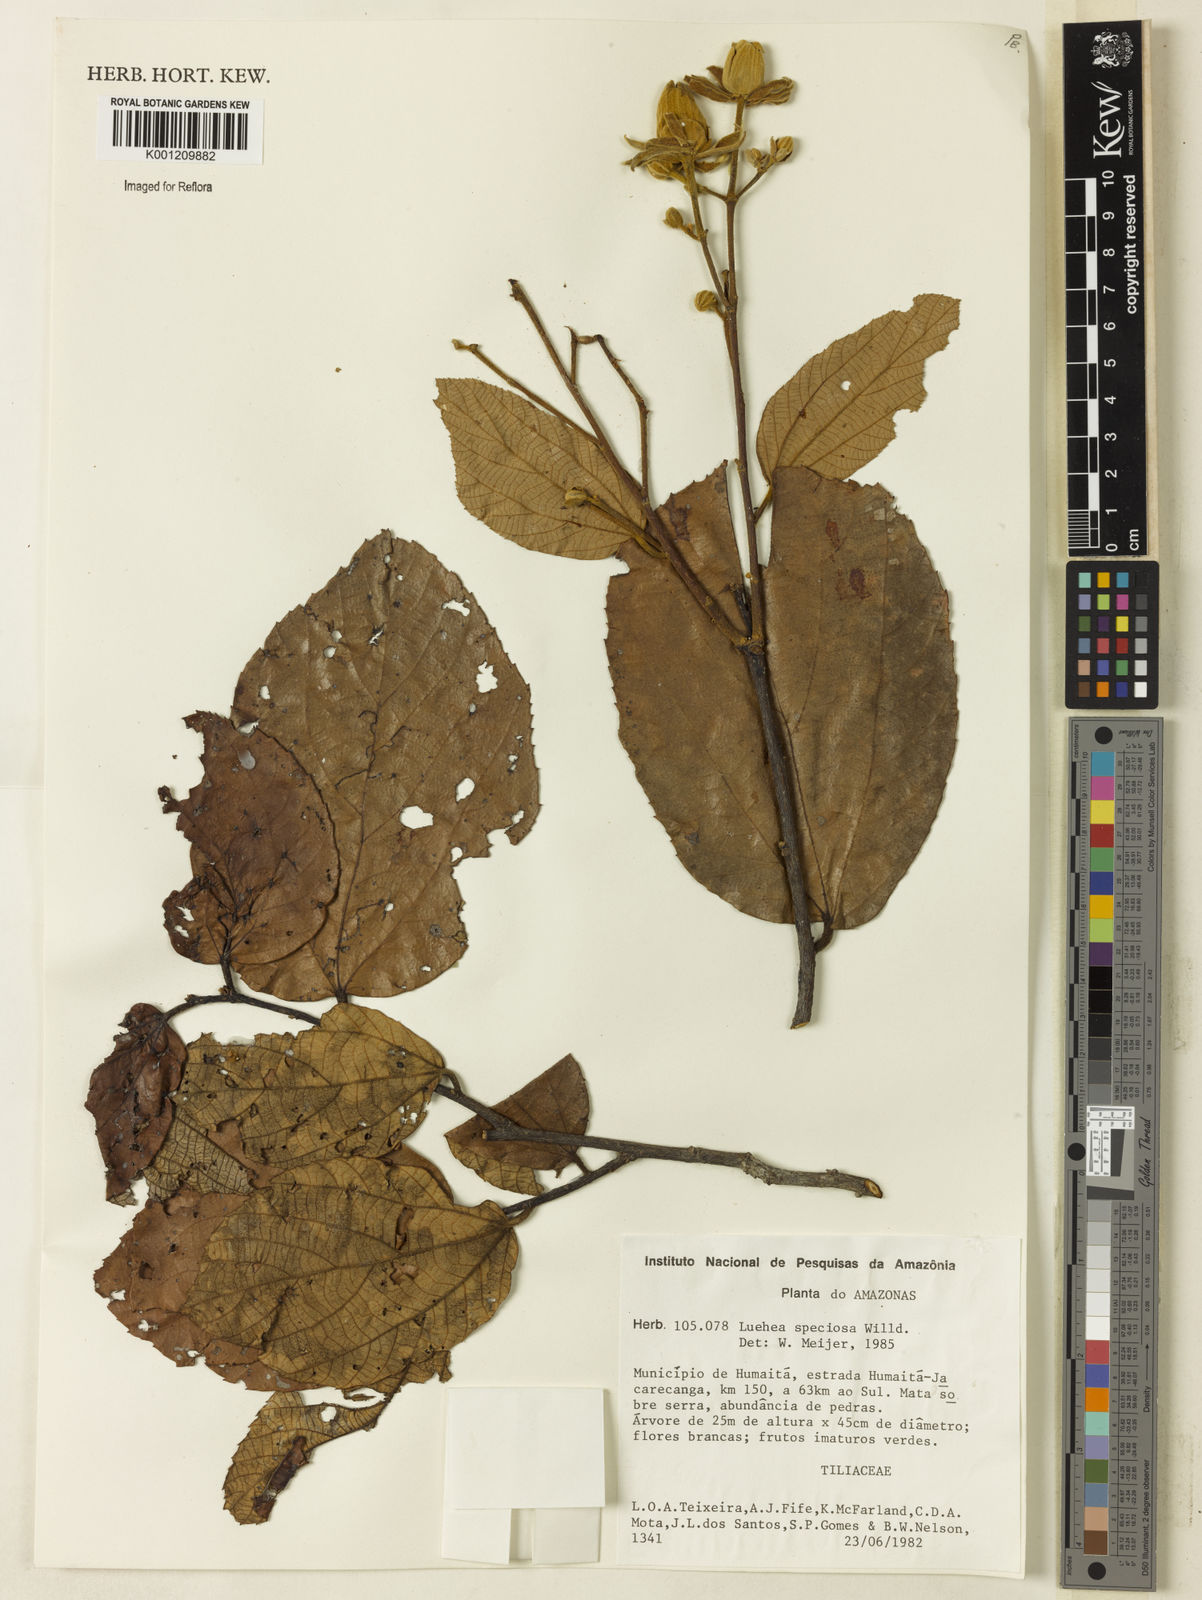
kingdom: Plantae
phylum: Tracheophyta
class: Magnoliopsida
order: Malvales
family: Malvaceae
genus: Luehea
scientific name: Luehea speciosa
